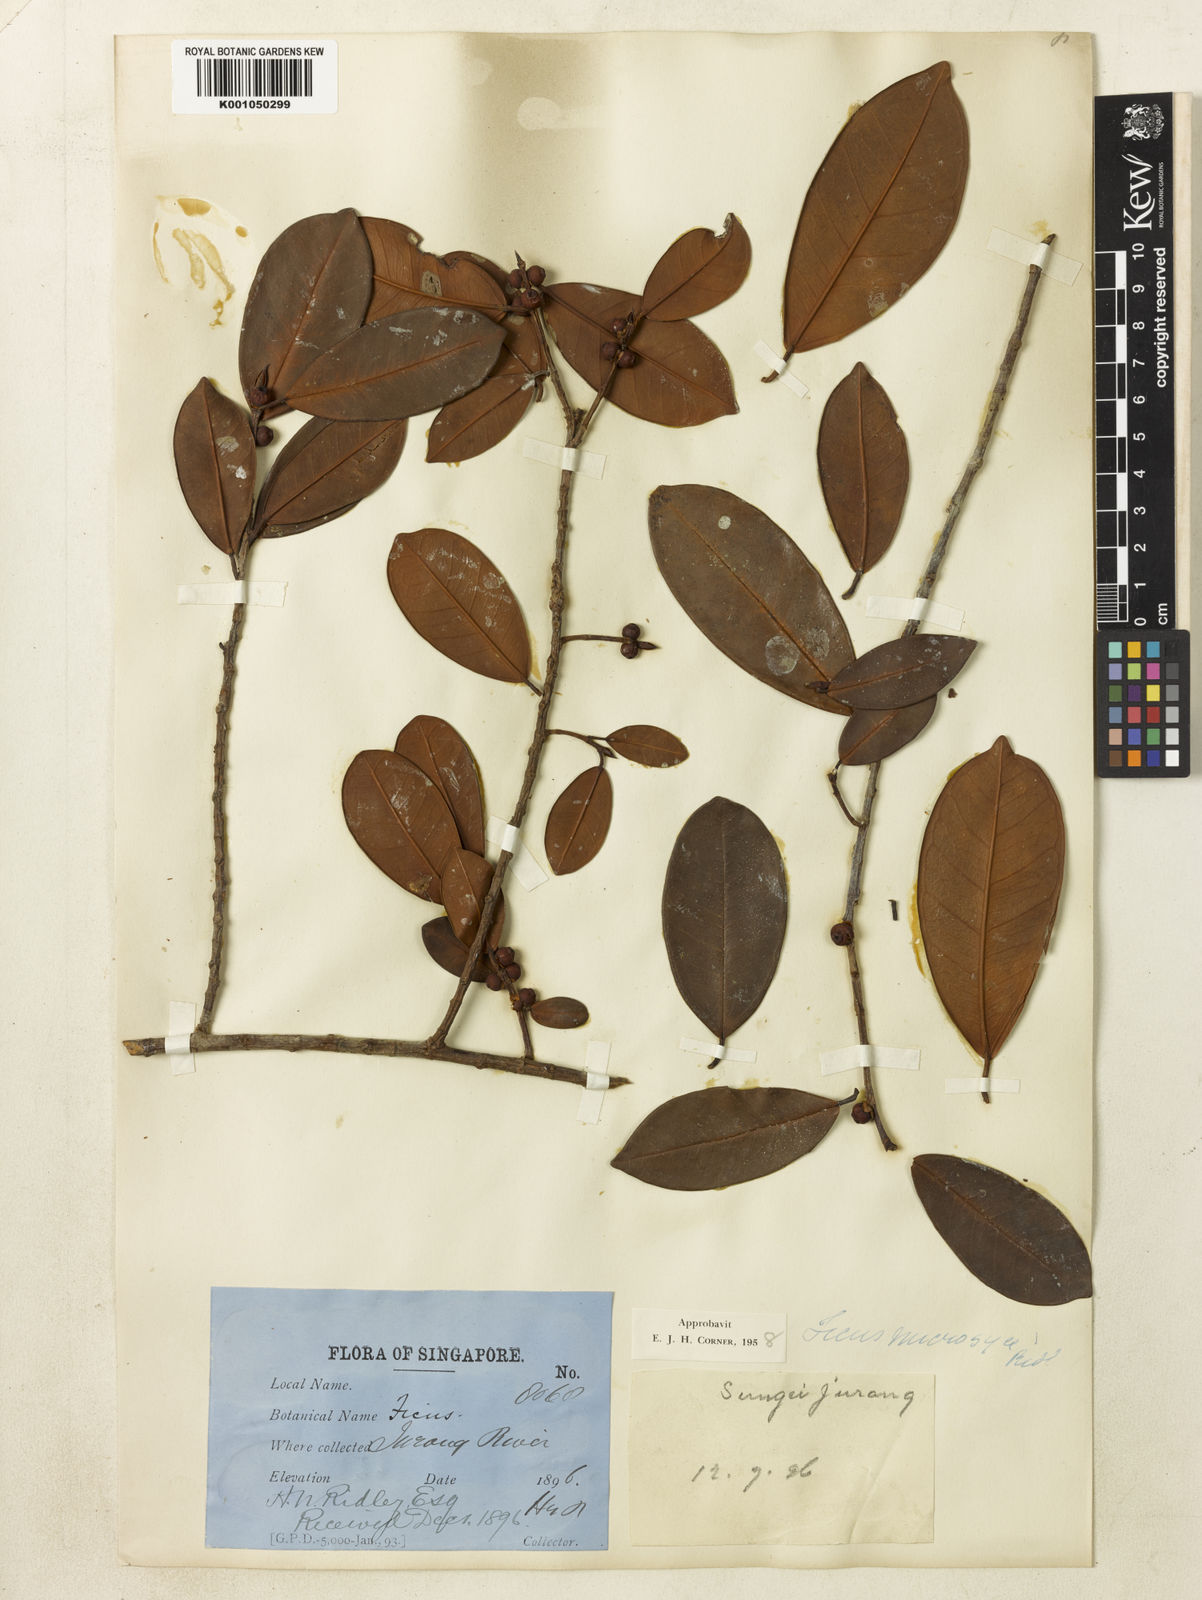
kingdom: Plantae
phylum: Tracheophyta
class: Magnoliopsida
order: Rosales
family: Moraceae
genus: Ficus
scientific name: Ficus microsyce
